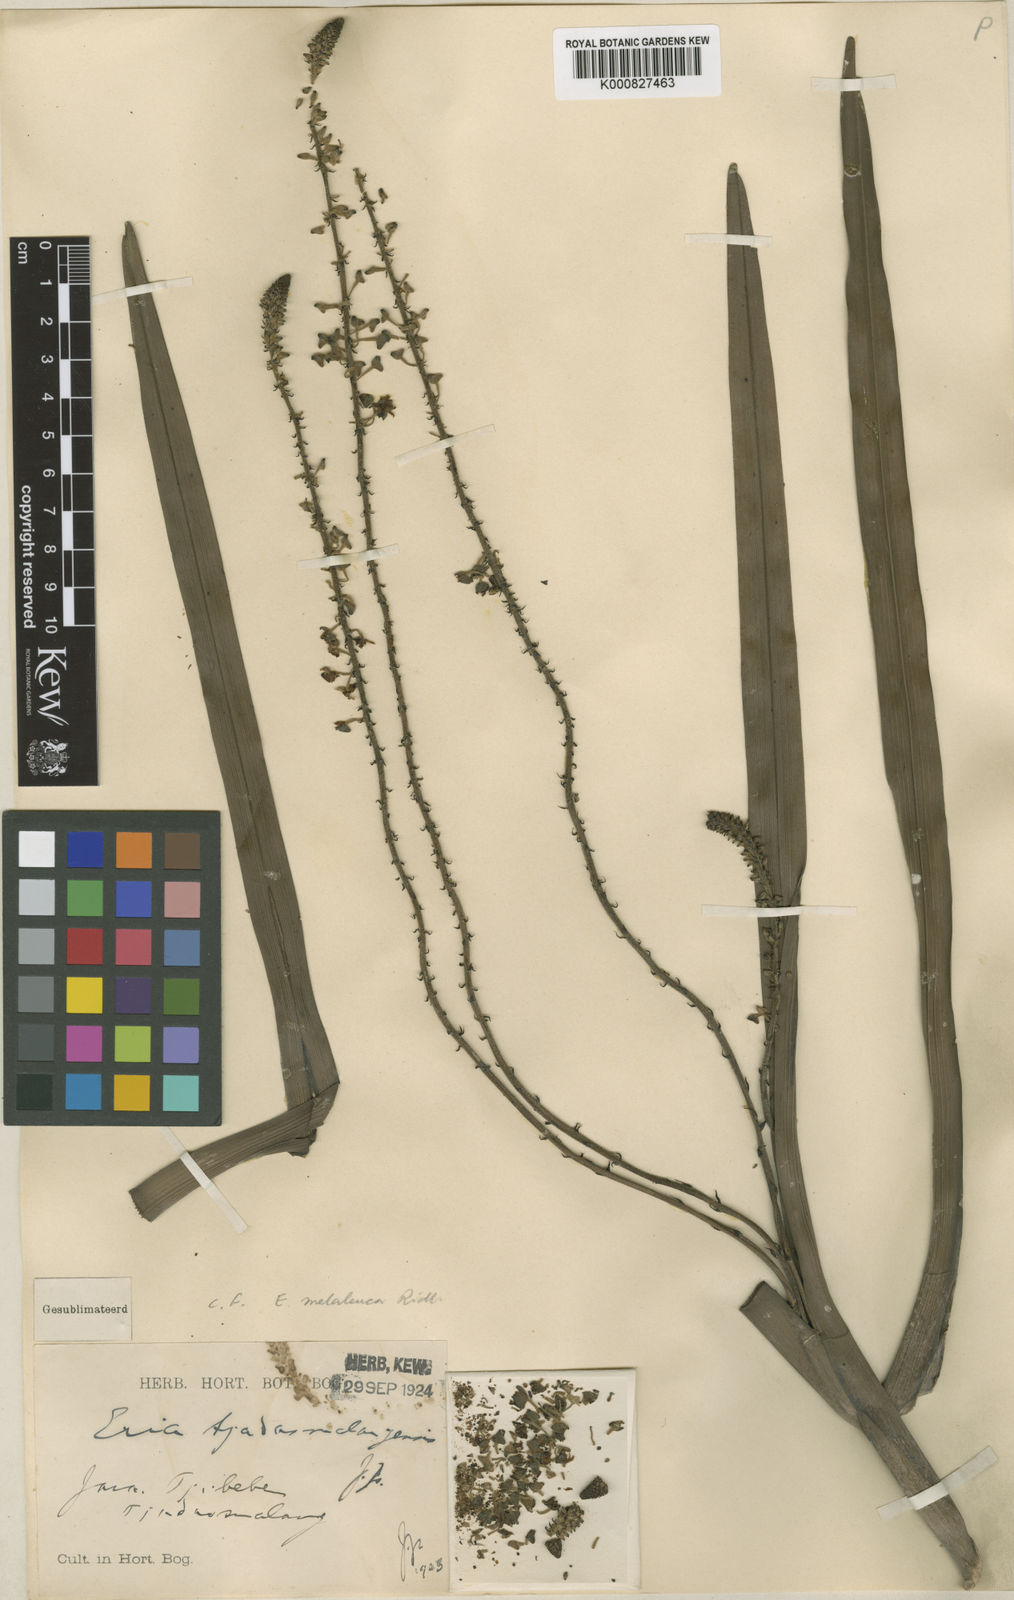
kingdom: Plantae
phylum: Tracheophyta
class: Liliopsida
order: Asparagales
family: Orchidaceae
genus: Mycaranthes
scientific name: Mycaranthes tricuspidata
